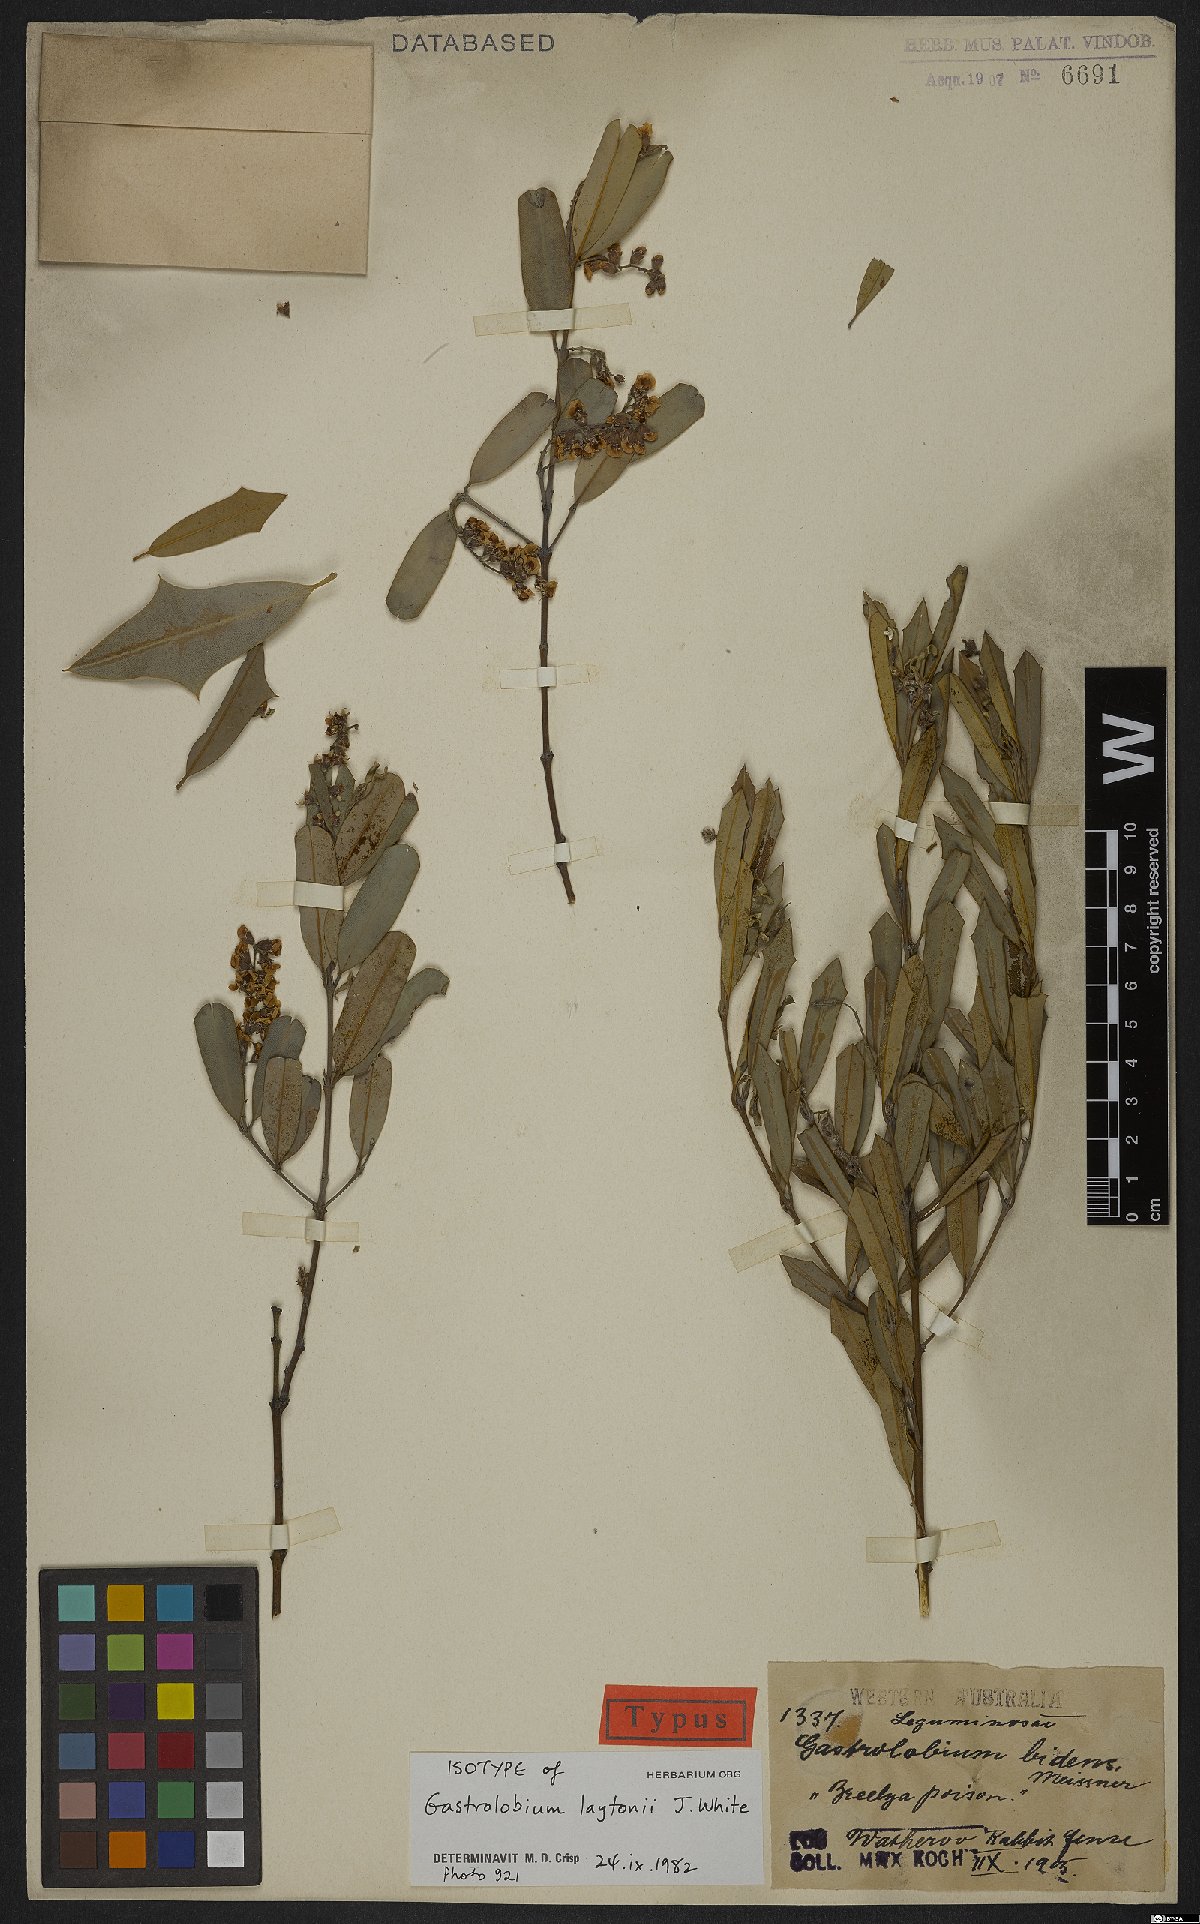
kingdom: Plantae
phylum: Tracheophyta
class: Magnoliopsida
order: Fabales
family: Fabaceae
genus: Gastrolobium
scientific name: Gastrolobium laytonii
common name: Breelya poison
